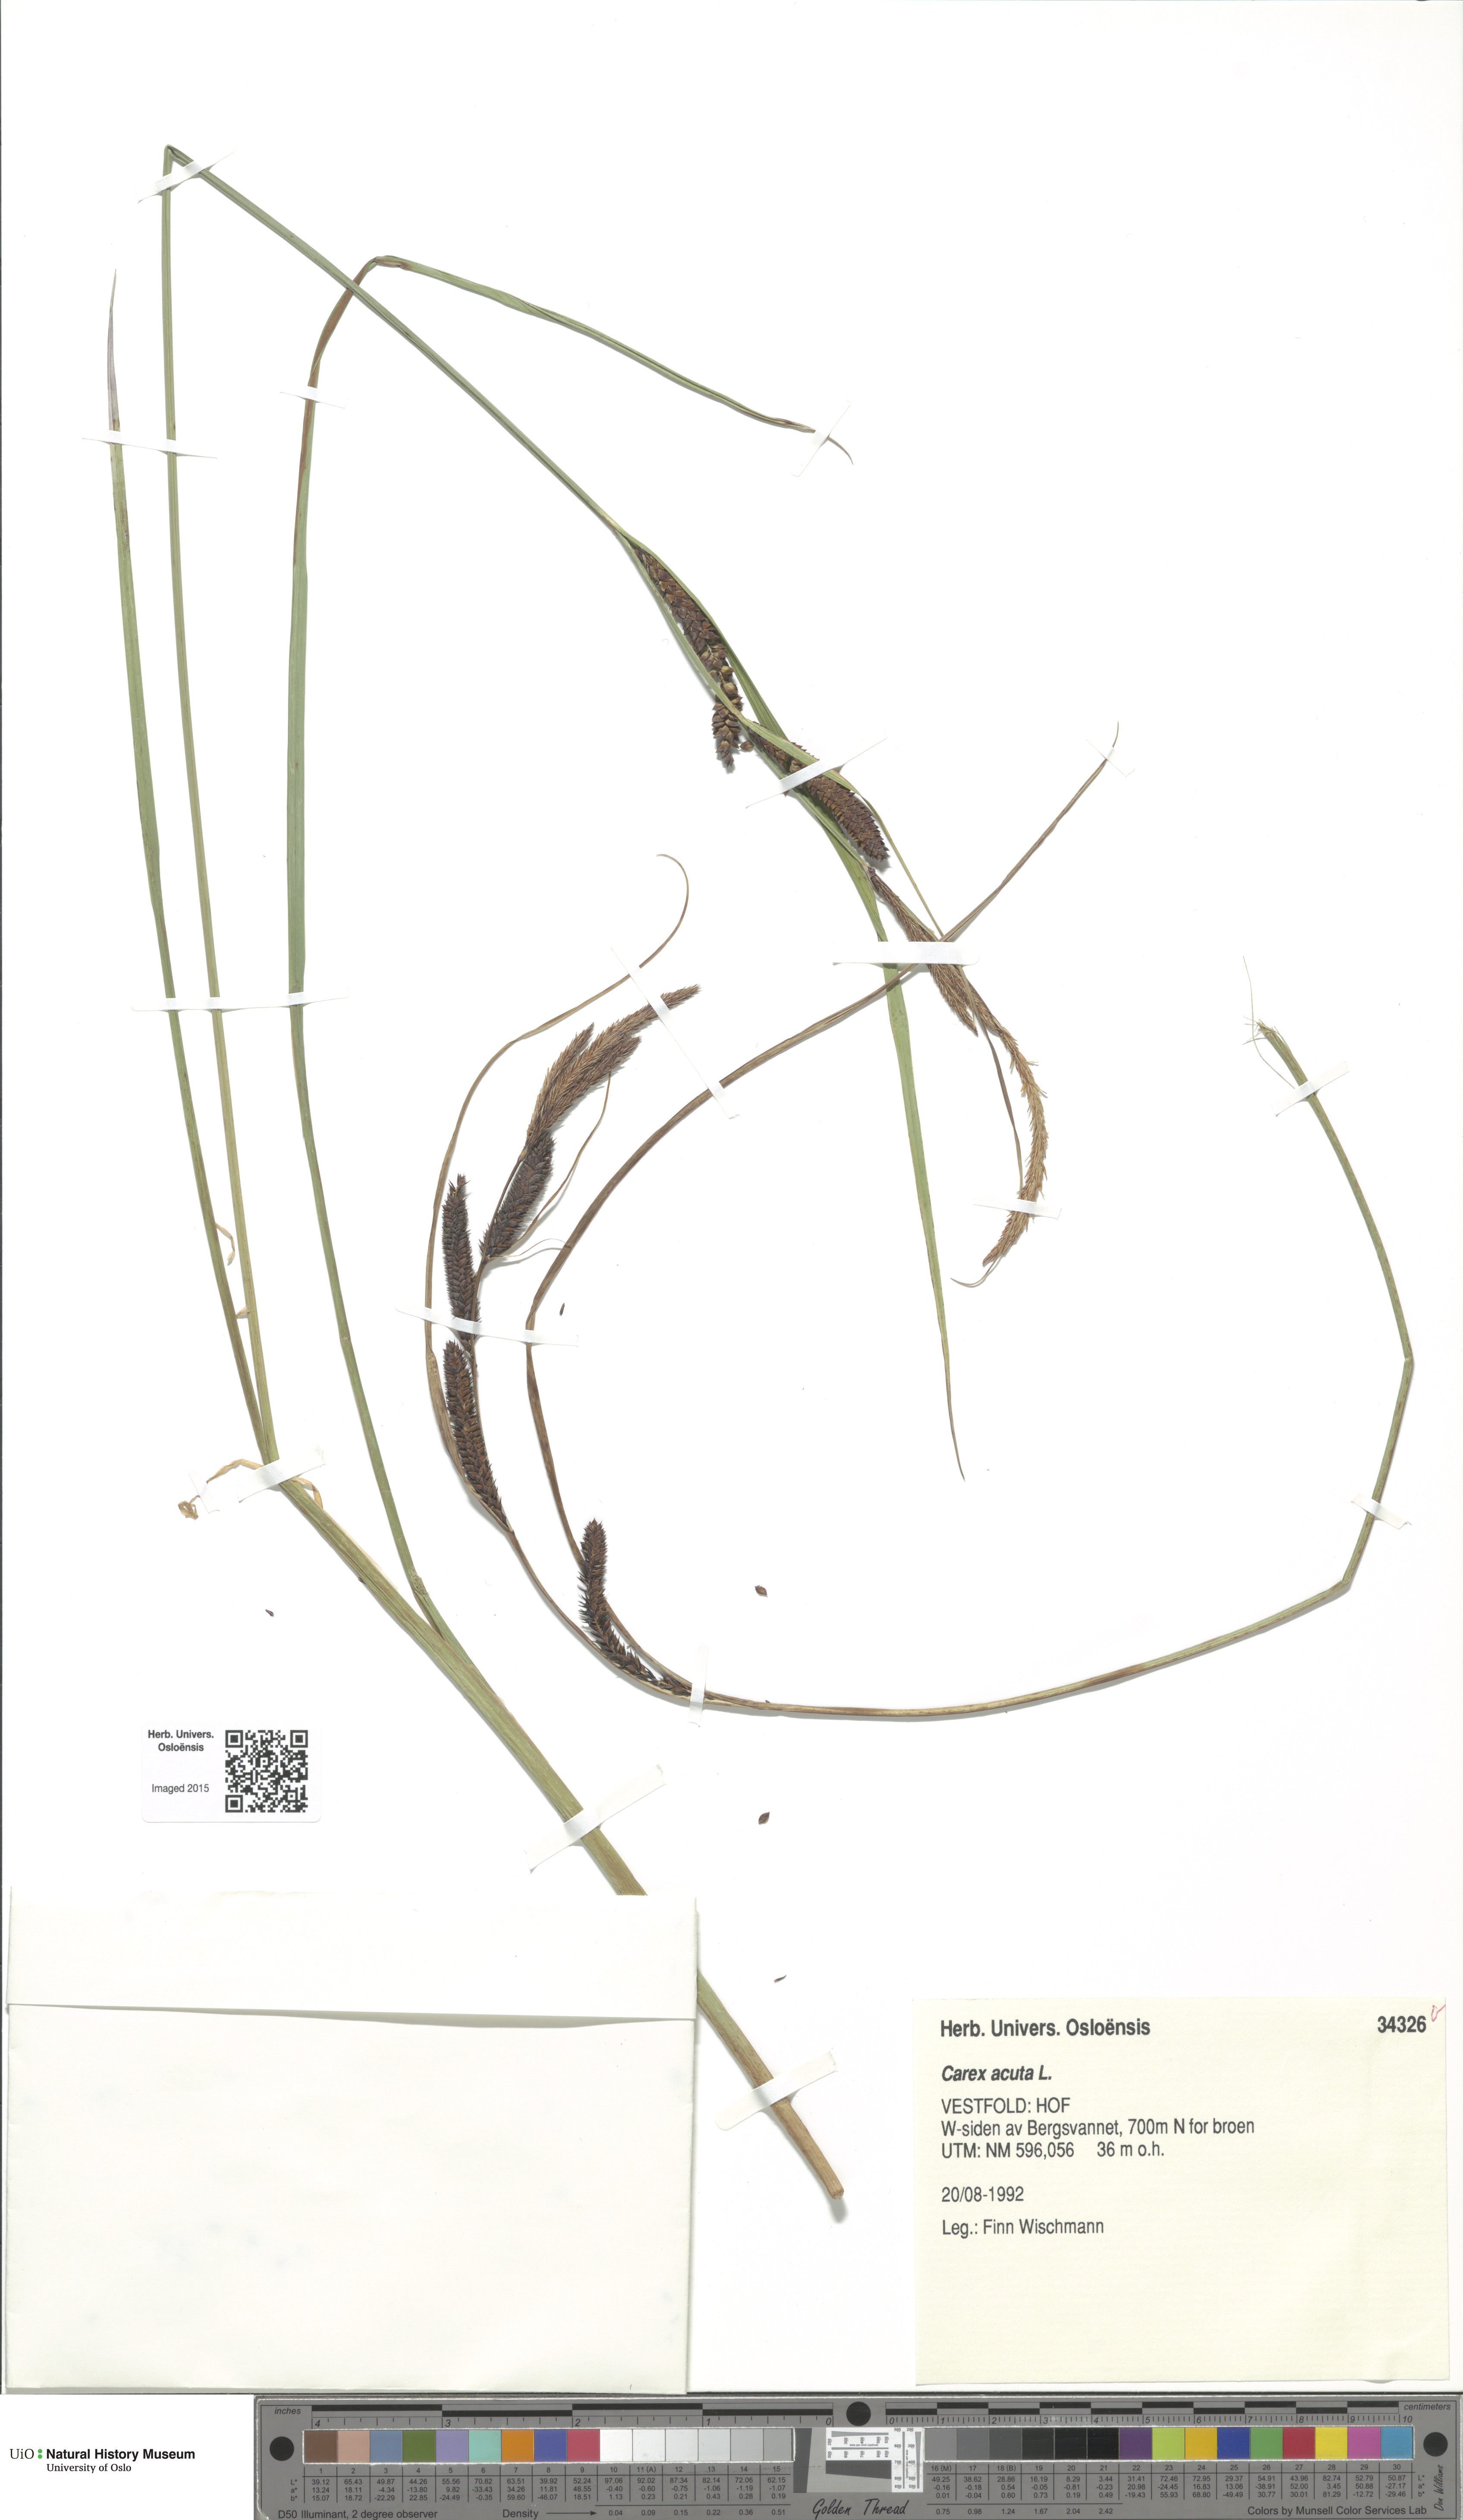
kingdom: Plantae
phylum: Tracheophyta
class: Liliopsida
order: Poales
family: Cyperaceae
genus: Carex
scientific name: Carex acuta
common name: Slender tufted-sedge
